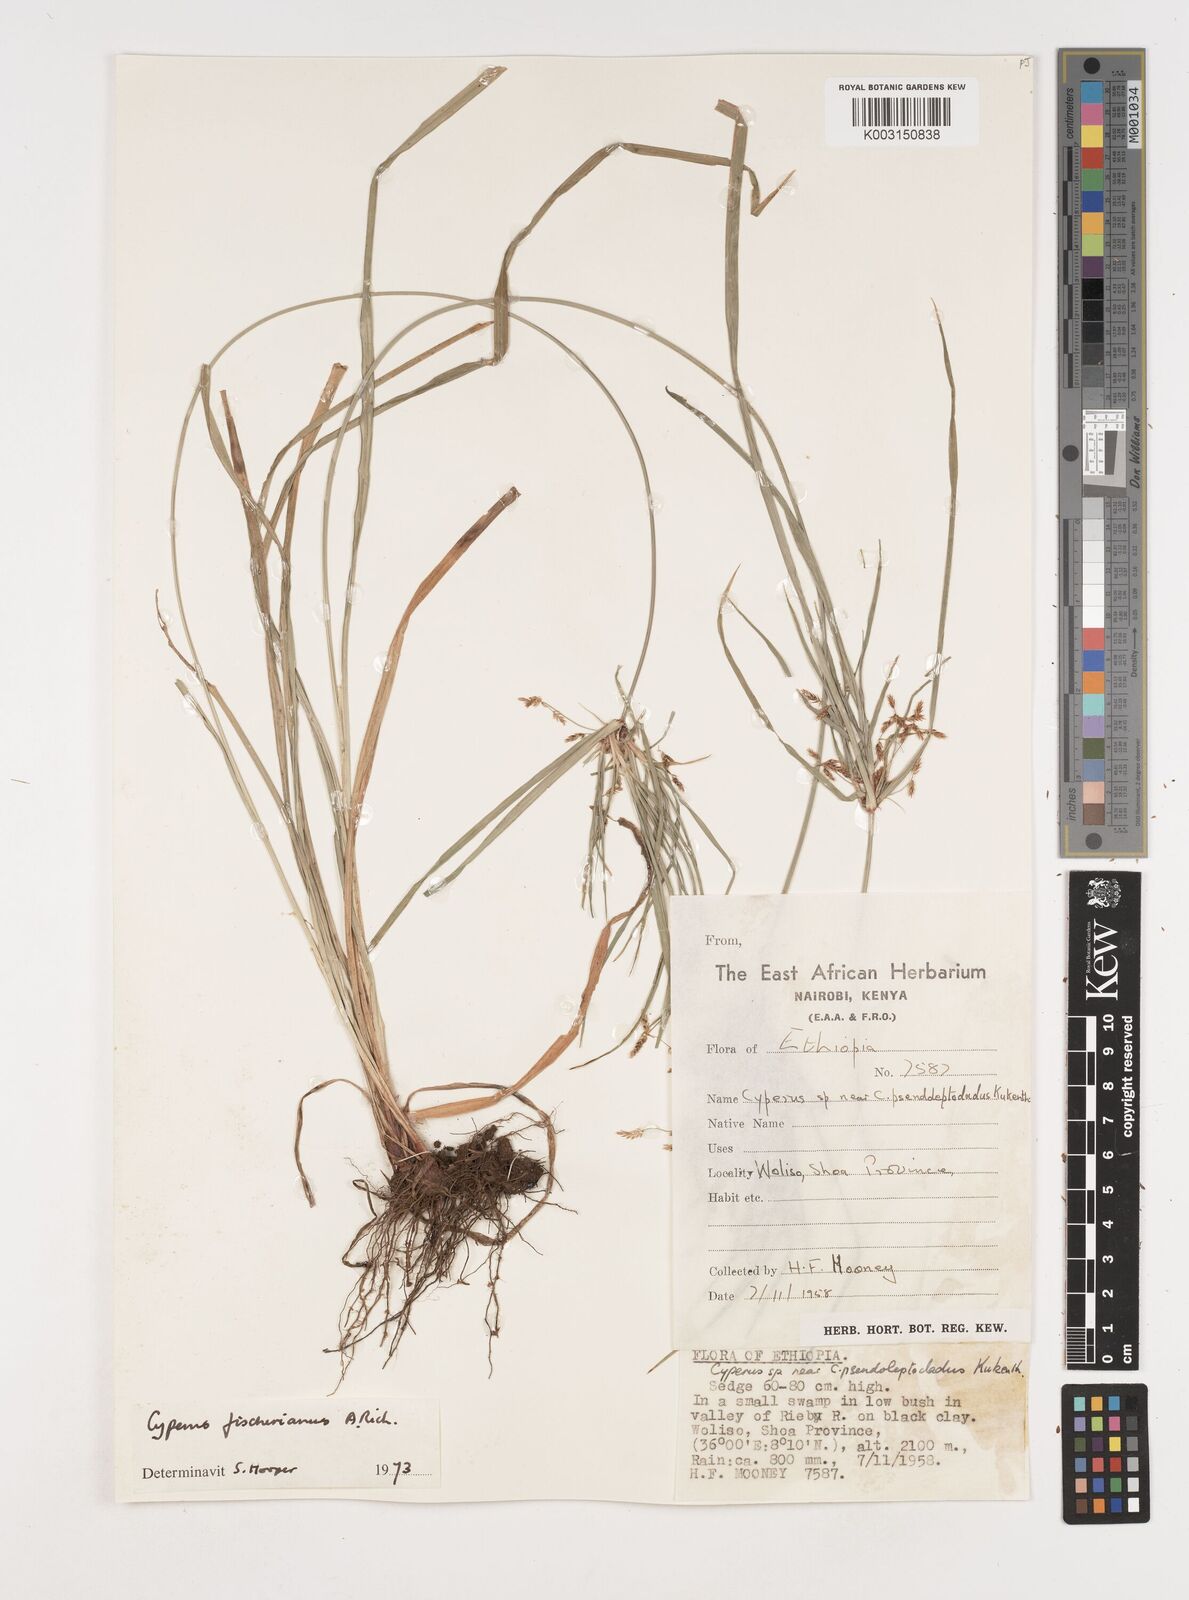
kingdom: Plantae
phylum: Tracheophyta
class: Liliopsida
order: Poales
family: Cyperaceae
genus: Cyperus
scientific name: Cyperus fischerianus
